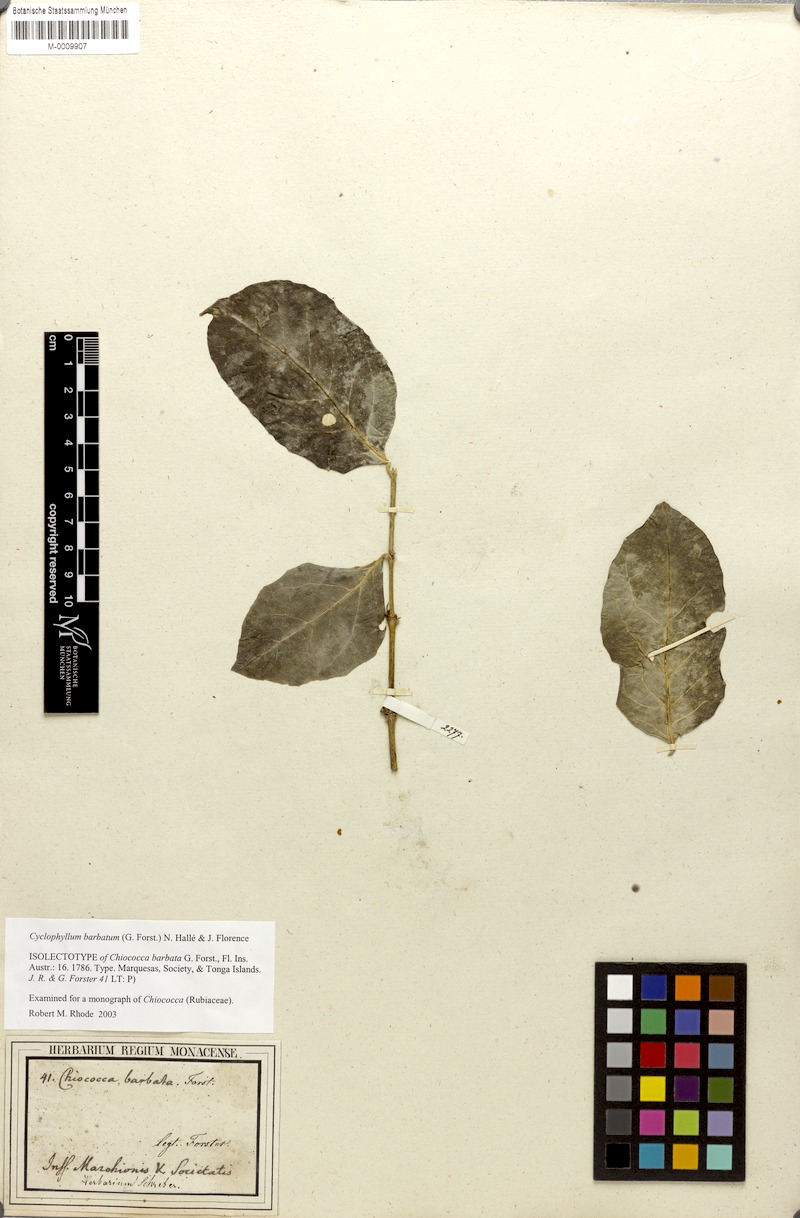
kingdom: Plantae
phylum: Tracheophyta
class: Magnoliopsida
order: Gentianales
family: Rubiaceae
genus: Cyclophyllum
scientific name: Cyclophyllum barbatum
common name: Cyclophyllum
